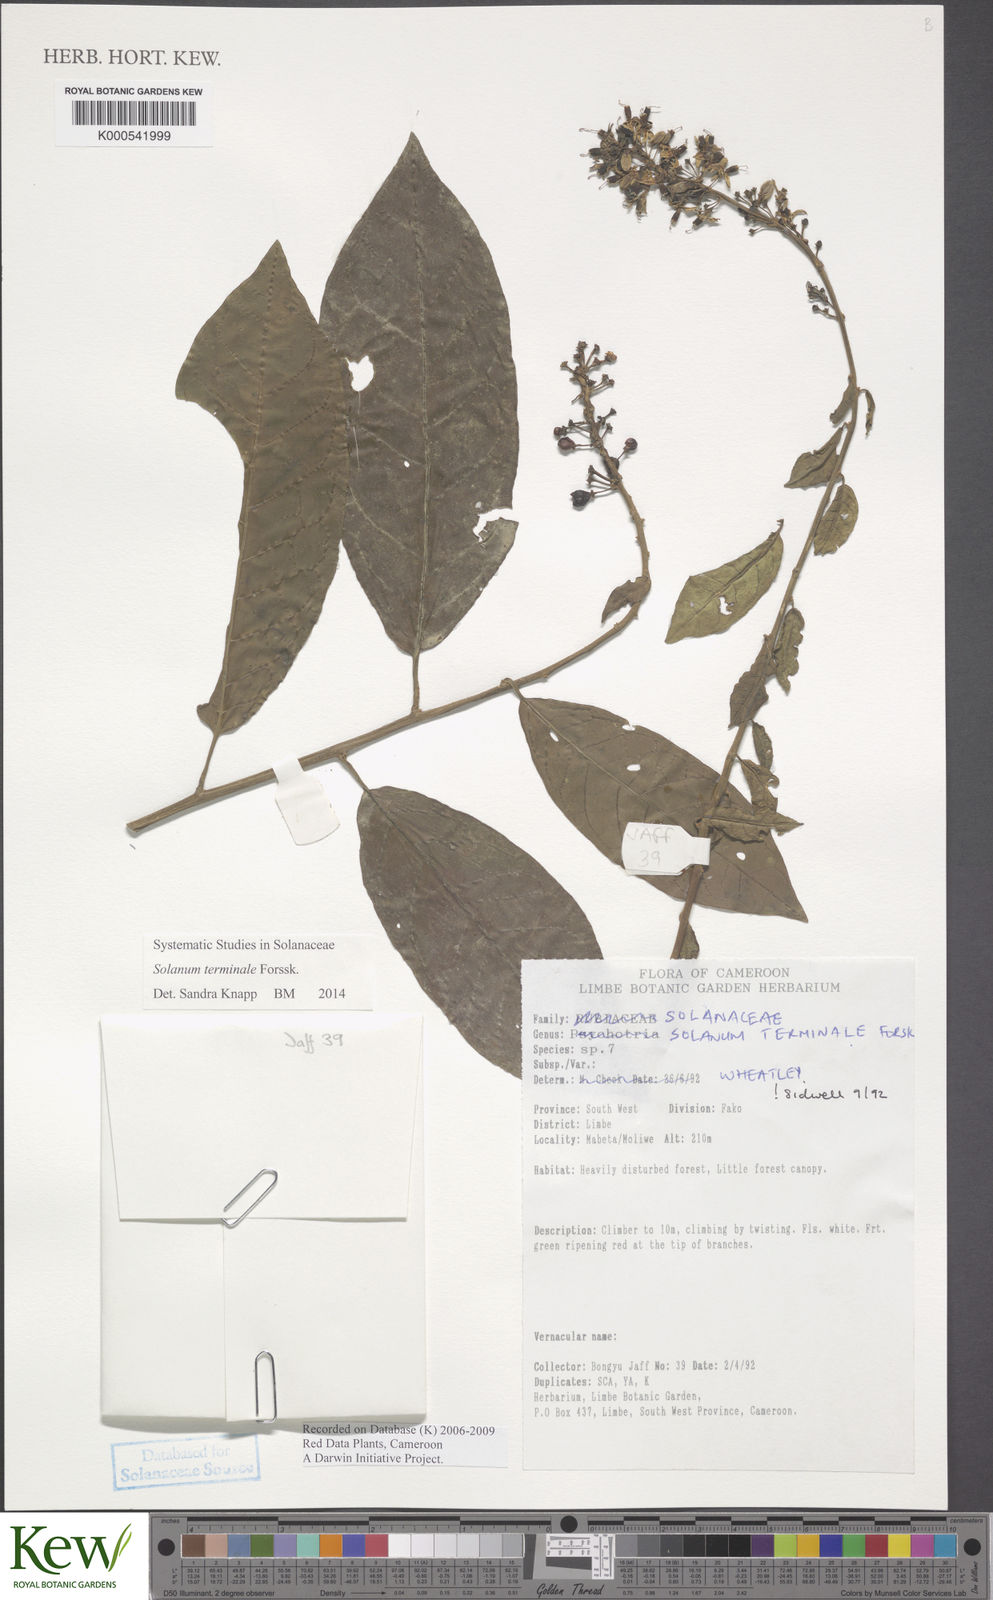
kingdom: Plantae
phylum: Tracheophyta
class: Magnoliopsida
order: Solanales
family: Solanaceae
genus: Solanum
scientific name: Solanum terminale
